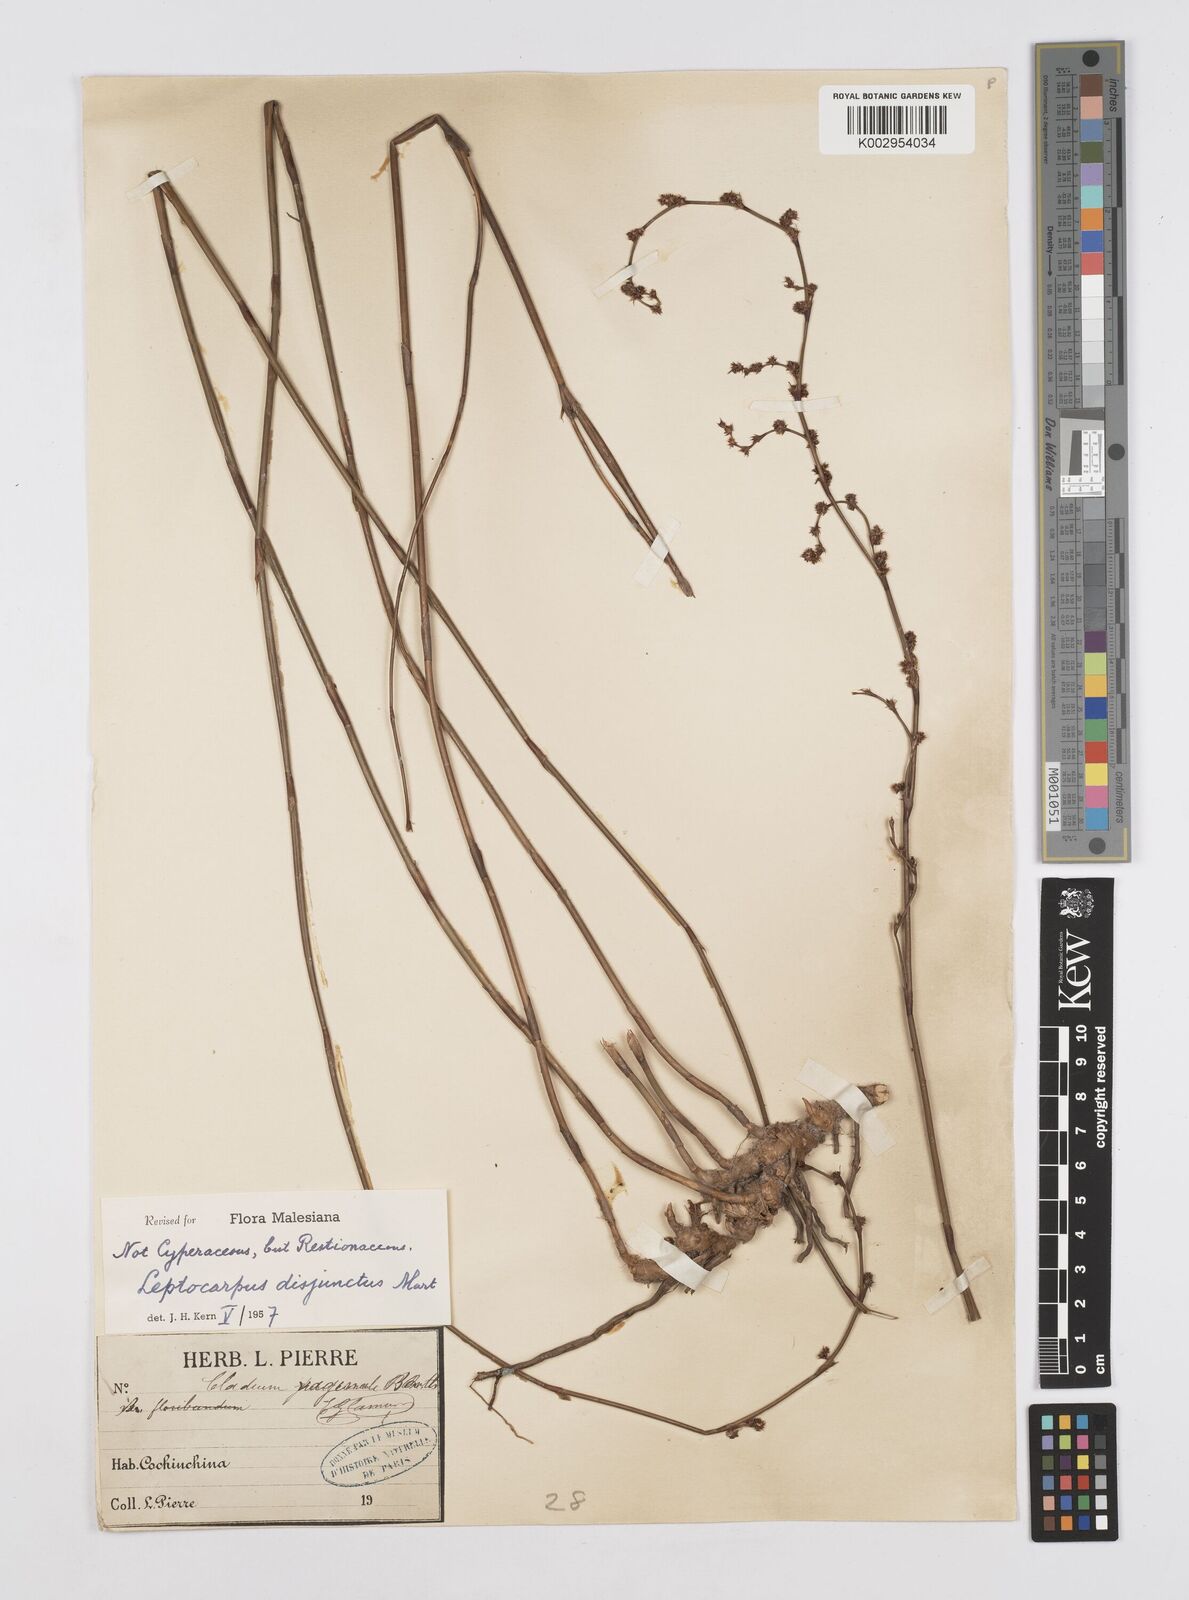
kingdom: Plantae
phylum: Tracheophyta
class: Liliopsida
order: Poales
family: Restionaceae
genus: Dapsilanthus
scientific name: Dapsilanthus disjunctus
